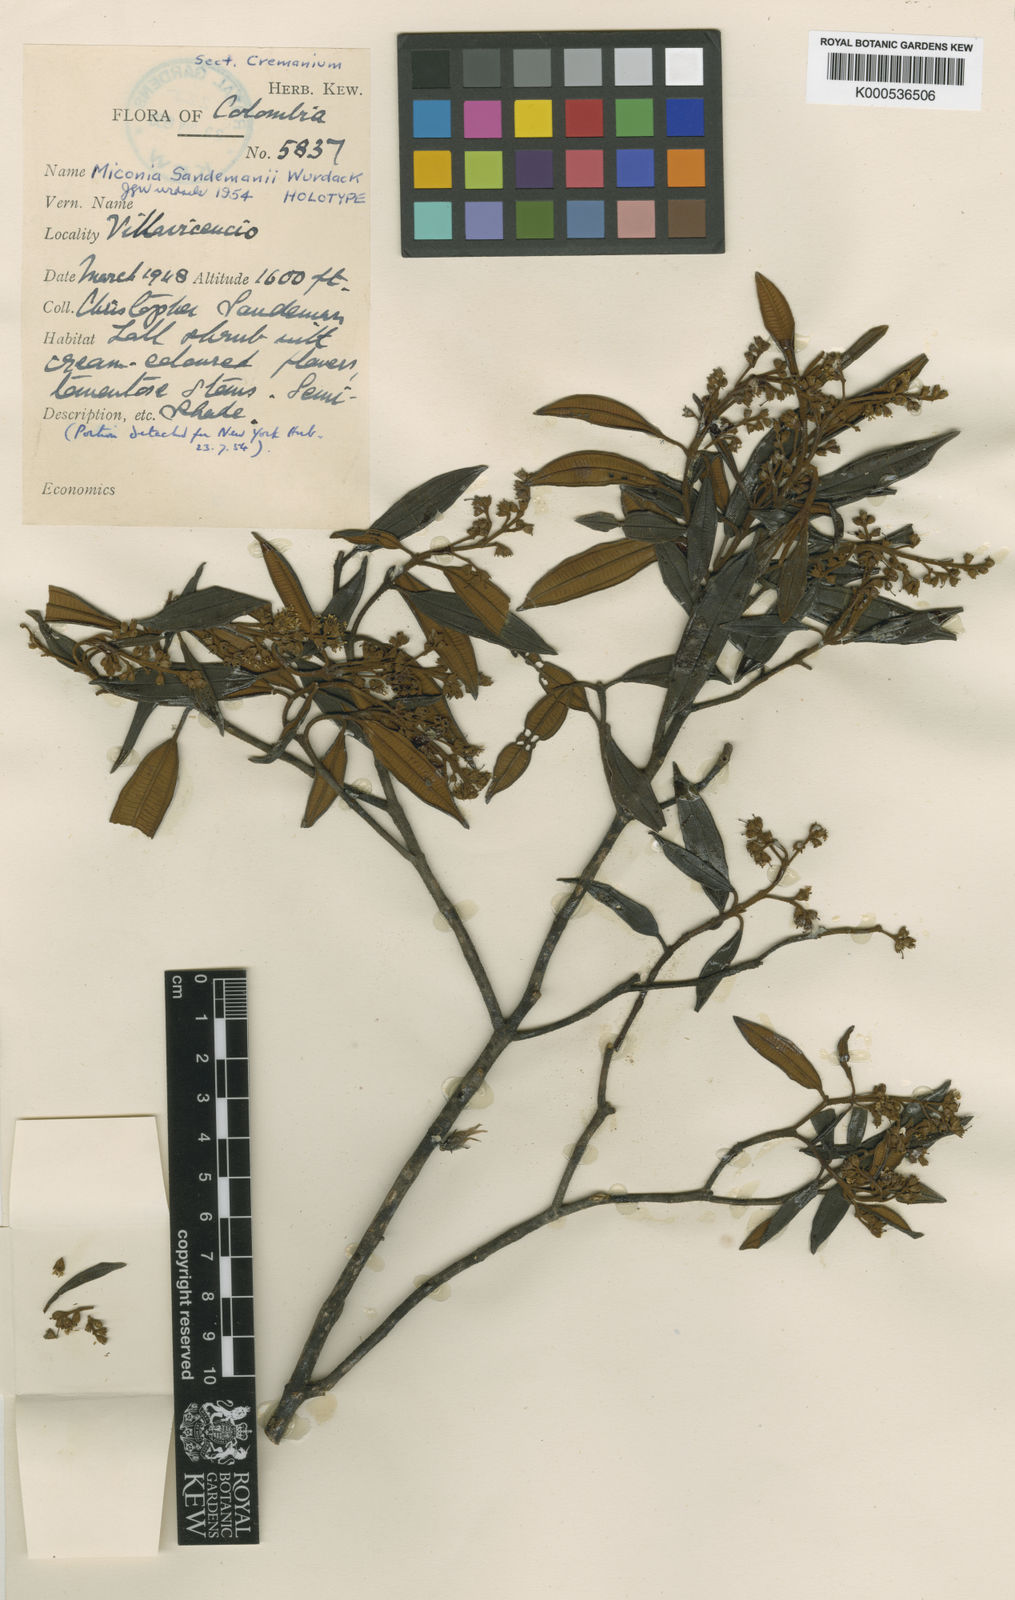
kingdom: Plantae
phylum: Tracheophyta
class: Magnoliopsida
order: Myrtales
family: Melastomataceae
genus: Miconia
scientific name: Miconia sandemanii
